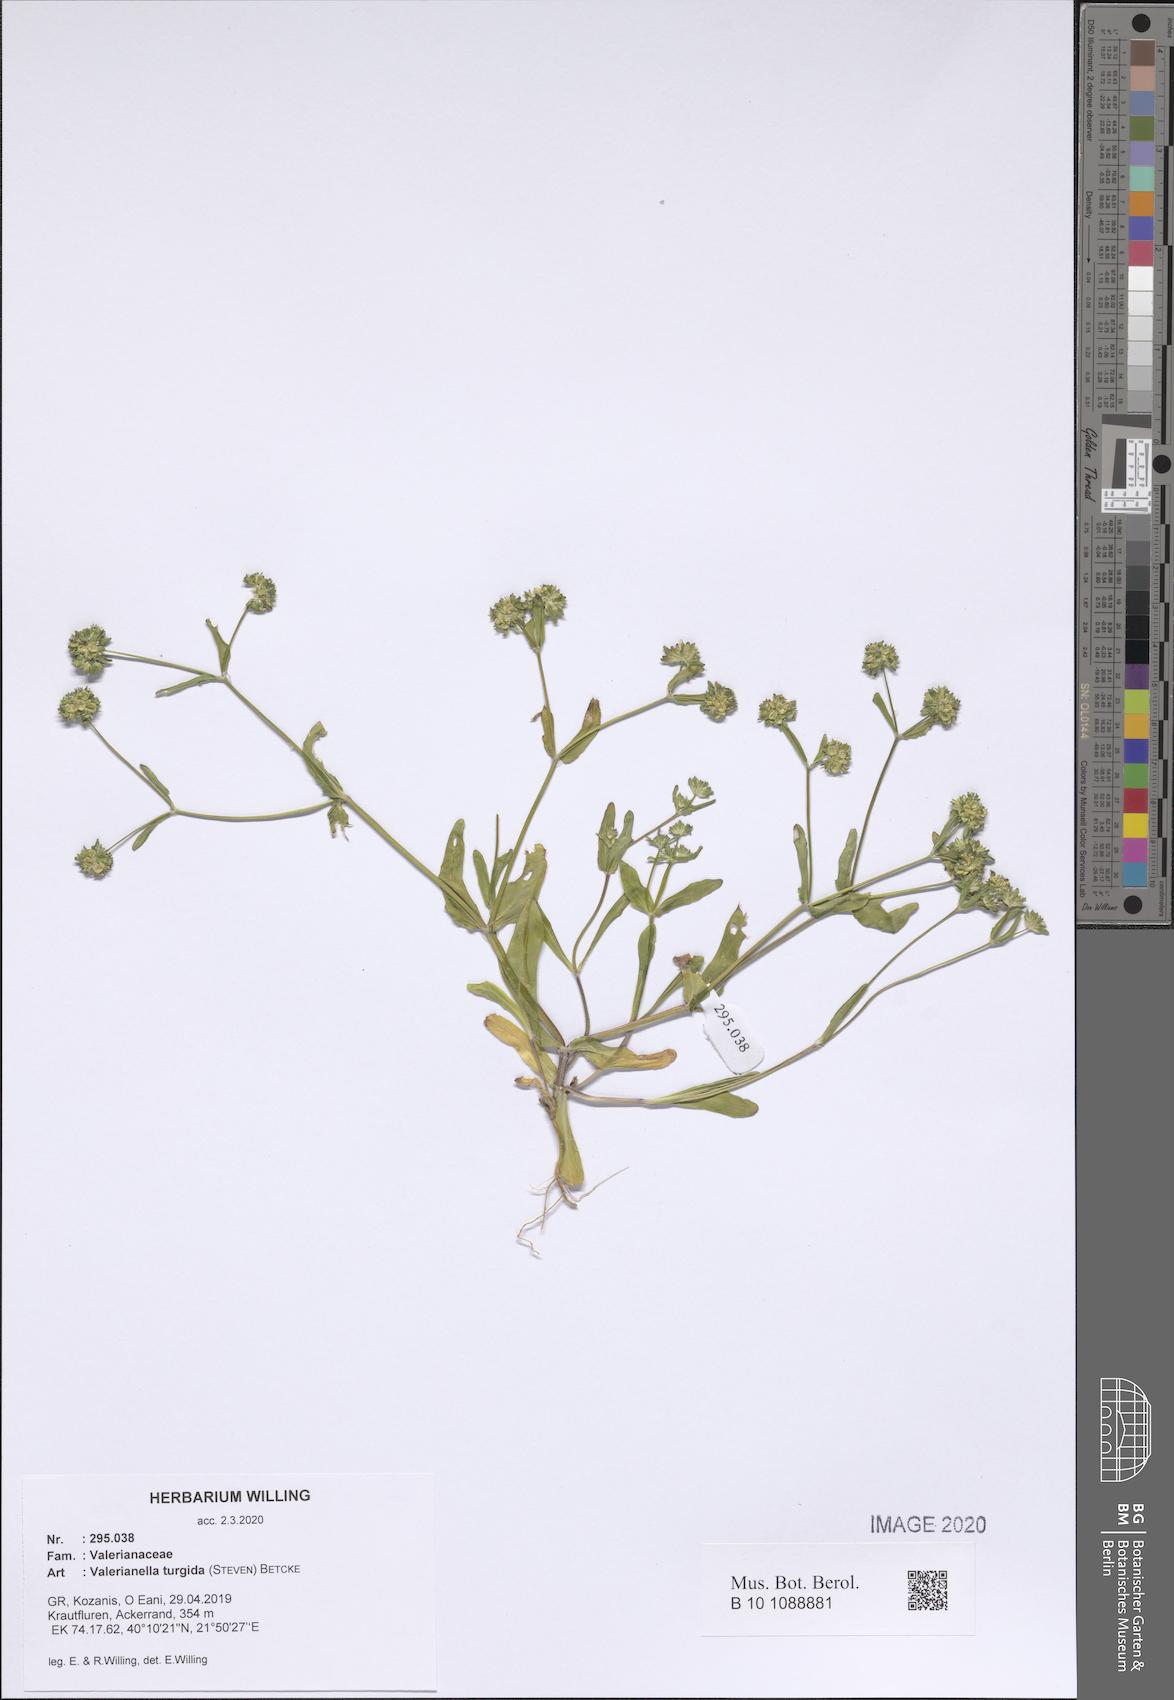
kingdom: Plantae
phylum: Tracheophyta
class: Magnoliopsida
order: Dipsacales
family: Caprifoliaceae
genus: Valerianella
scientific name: Valerianella turgida
